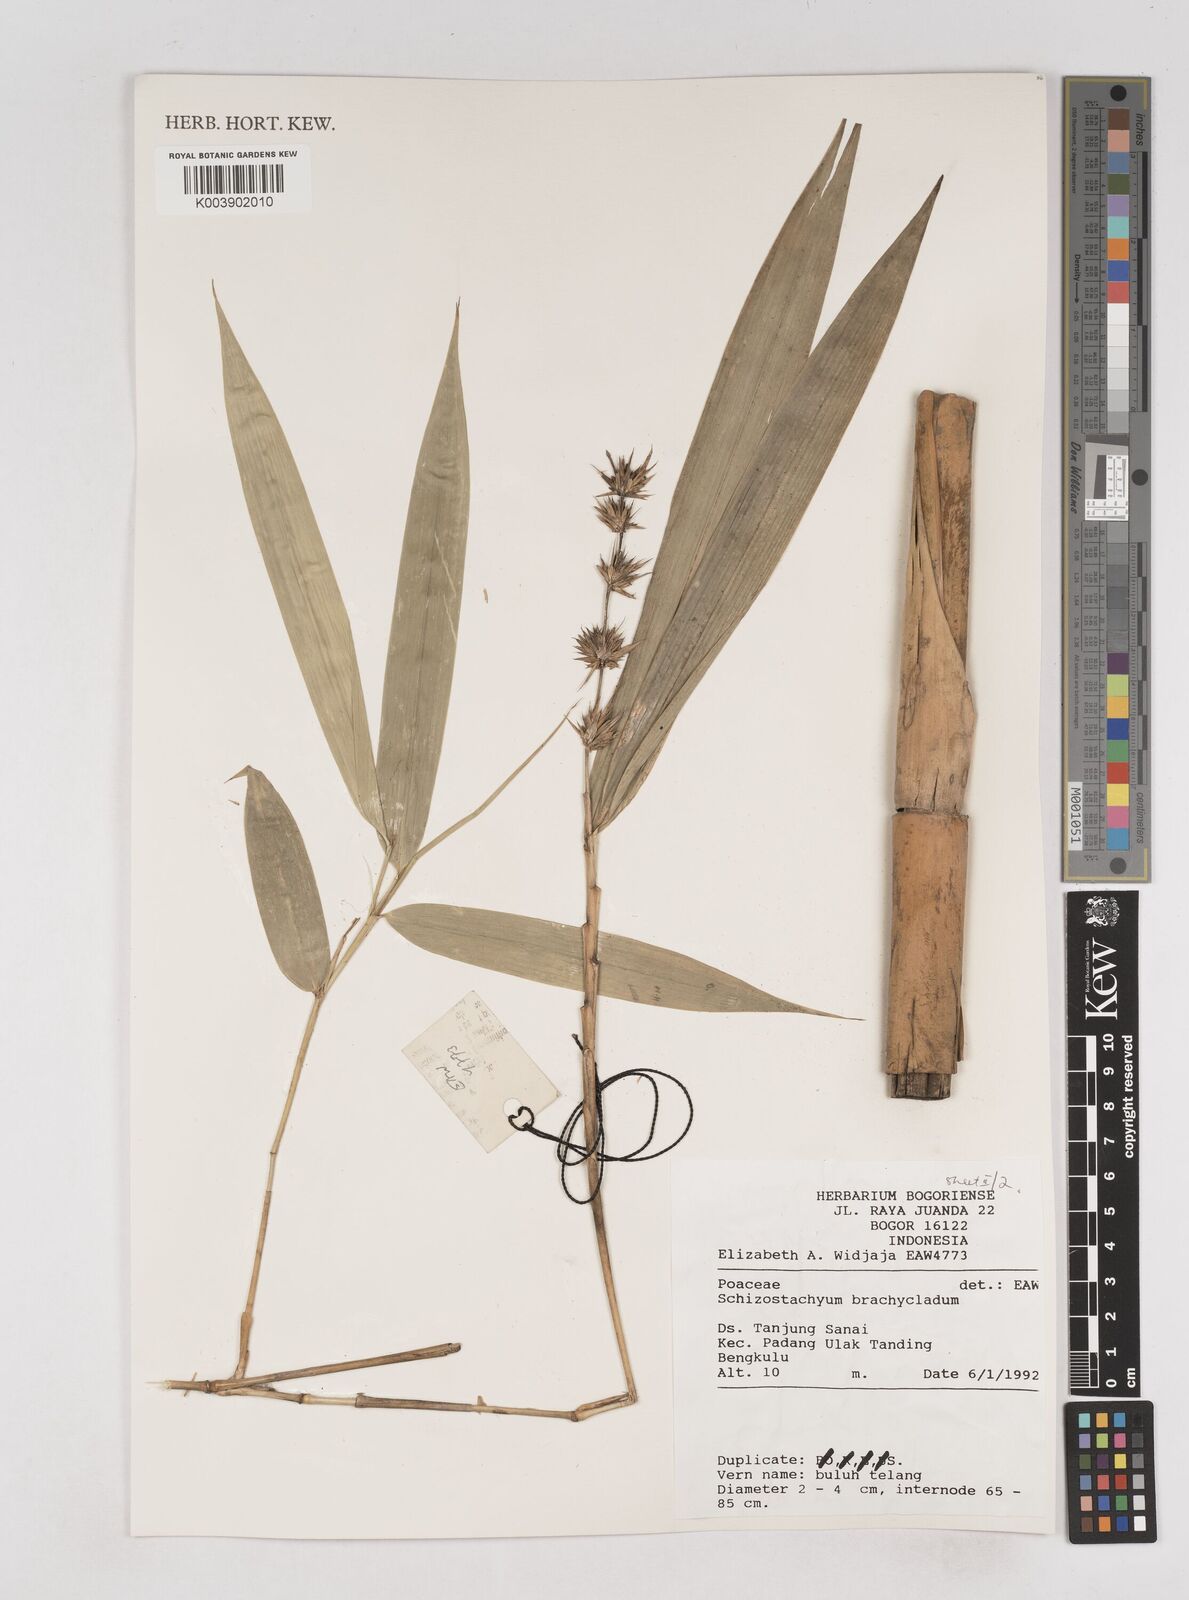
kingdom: Plantae
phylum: Tracheophyta
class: Liliopsida
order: Poales
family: Poaceae
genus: Schizostachyum
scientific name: Schizostachyum brachycladum
